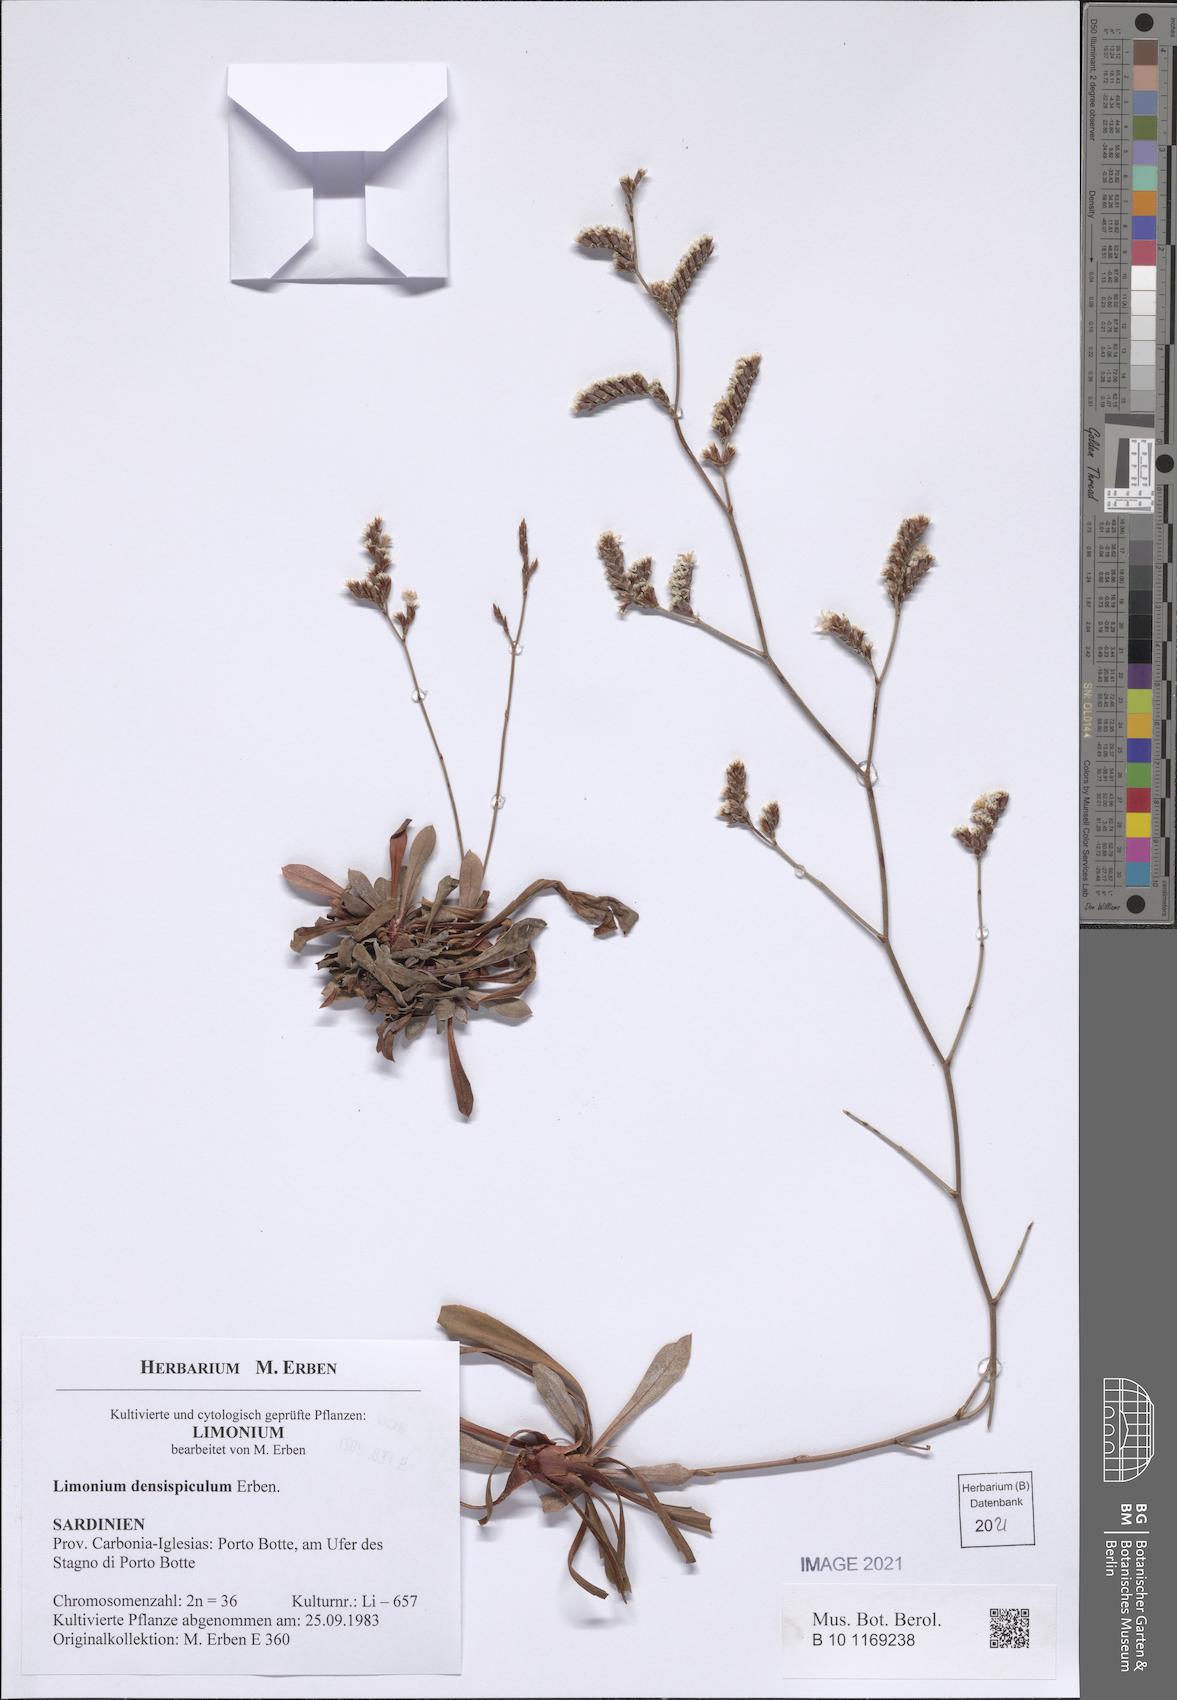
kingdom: Plantae
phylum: Tracheophyta
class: Magnoliopsida
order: Caryophyllales
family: Plumbaginaceae
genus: Limonium
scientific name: Limonium
